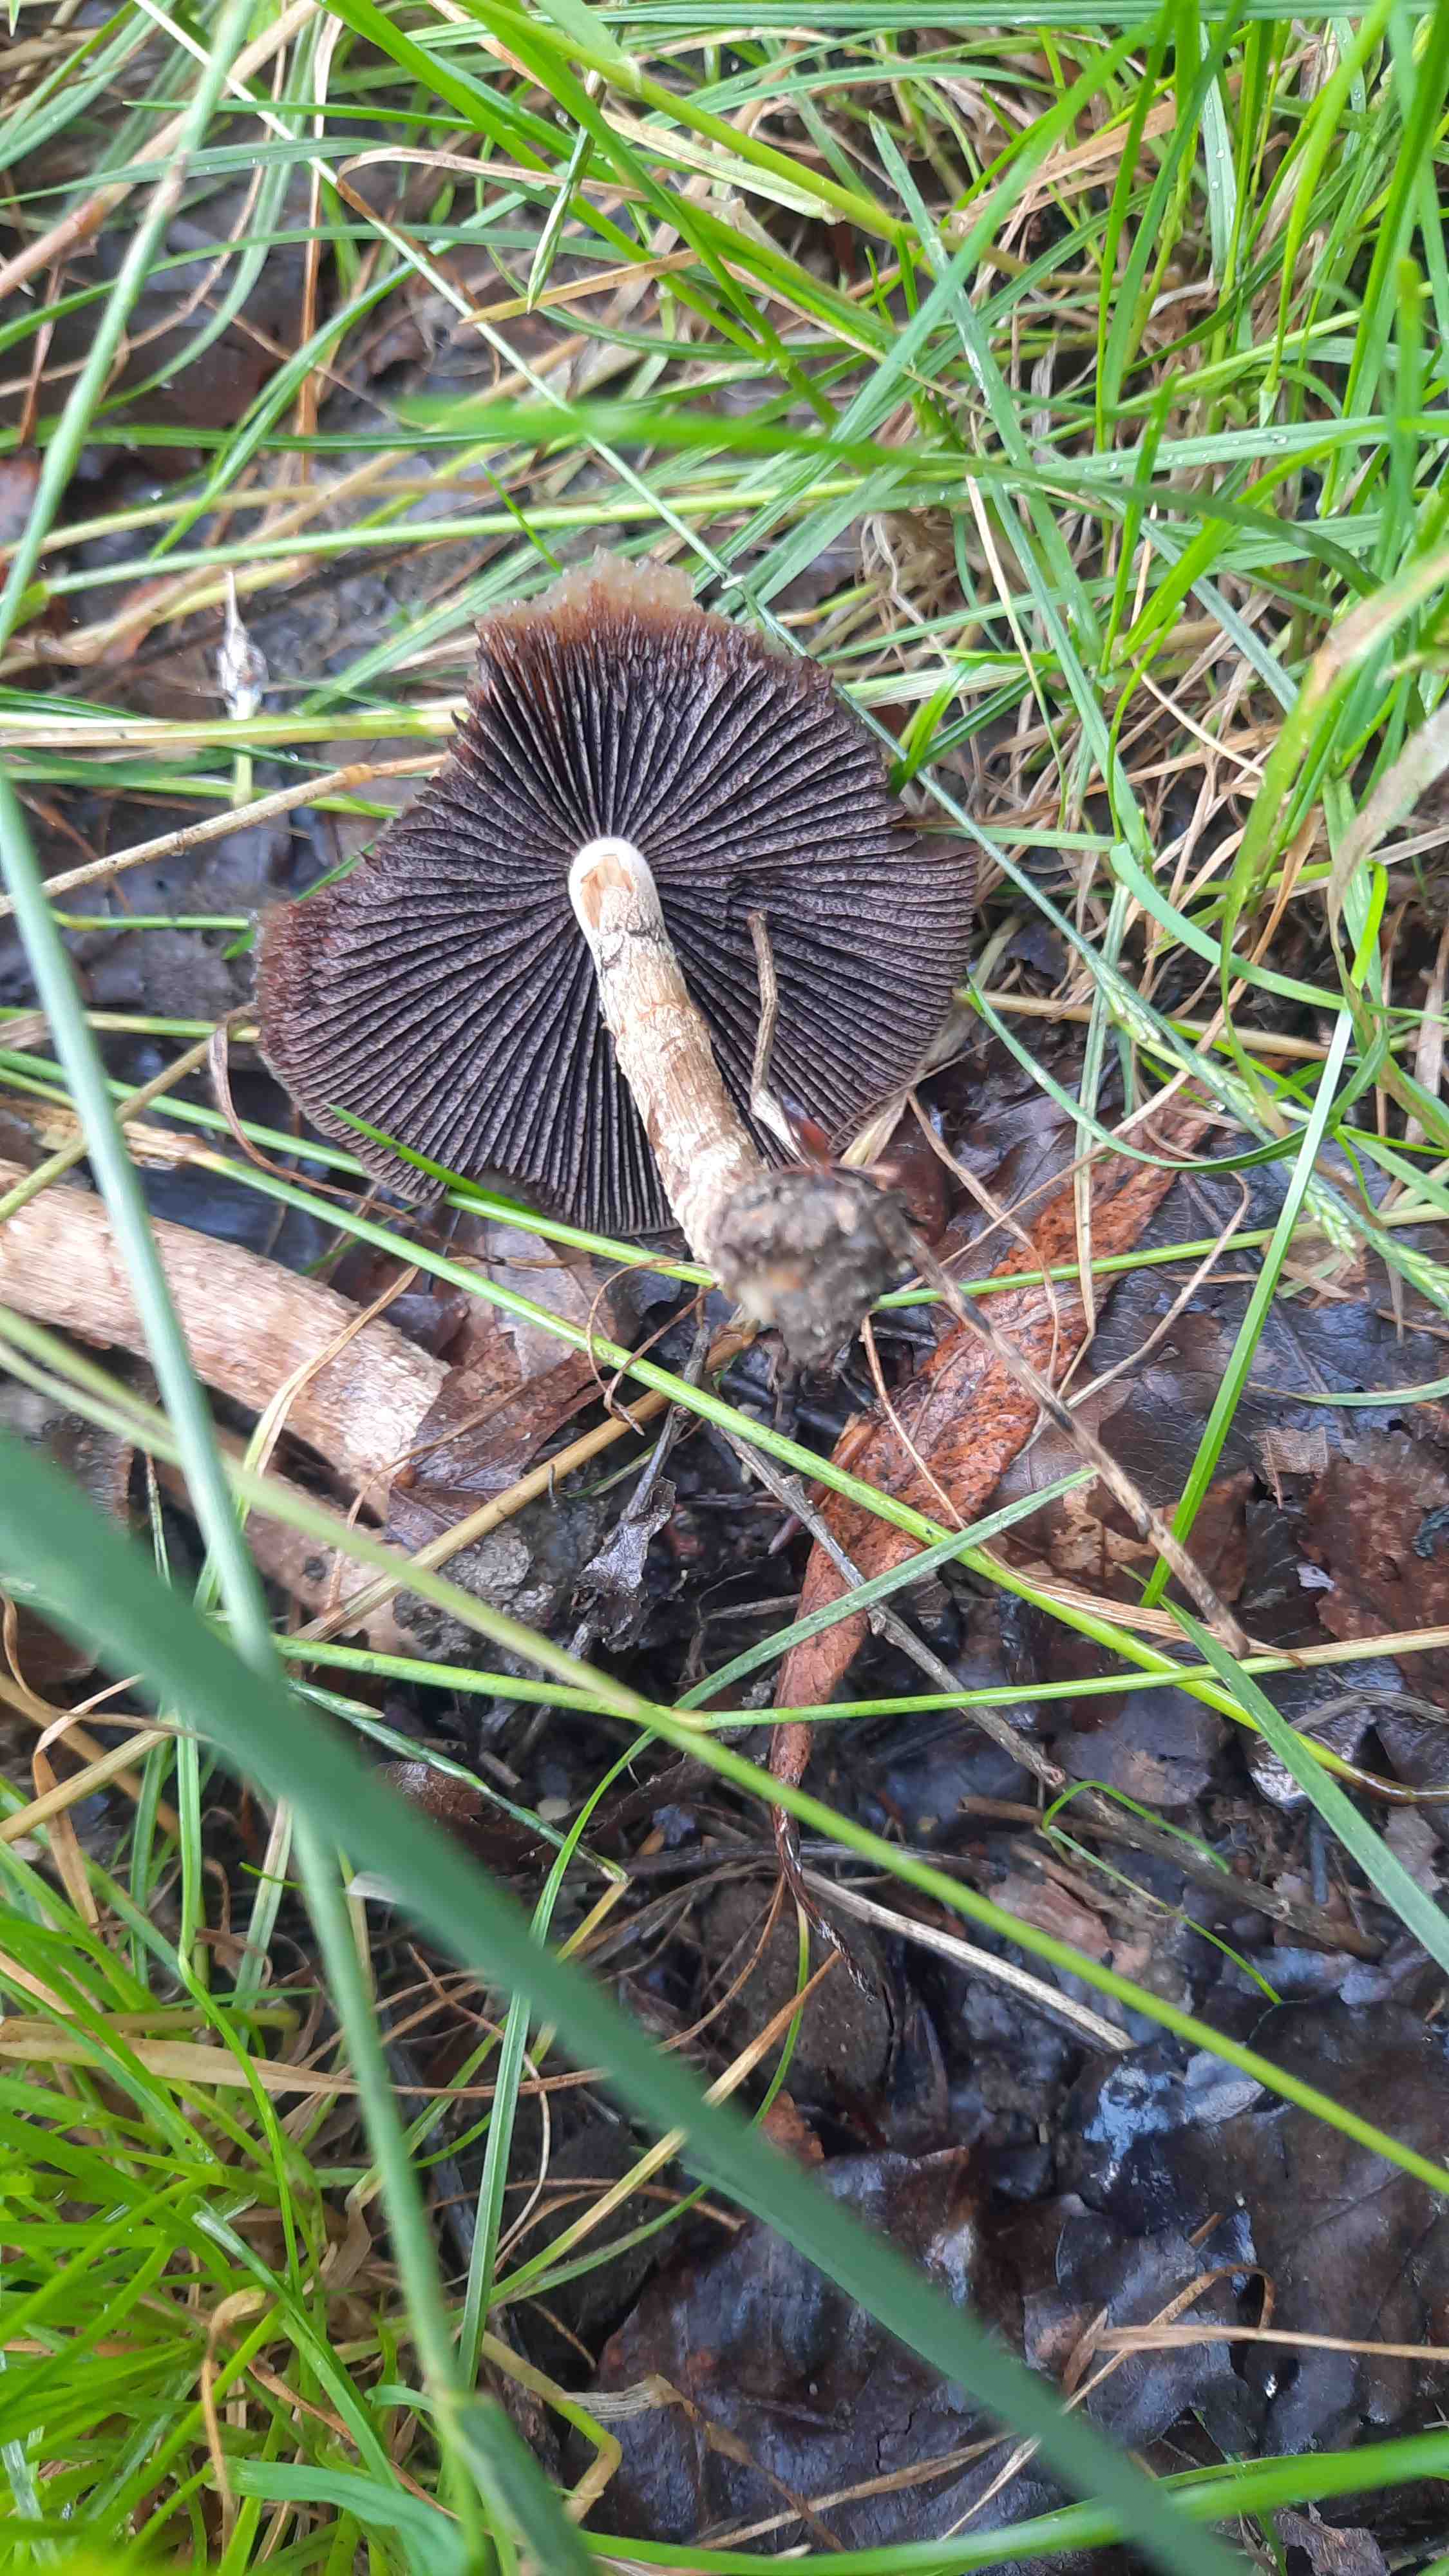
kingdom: Fungi
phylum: Basidiomycota
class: Agaricomycetes
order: Agaricales
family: Psathyrellaceae
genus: Lacrymaria
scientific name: Lacrymaria lacrymabunda
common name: grædende mørkhat
